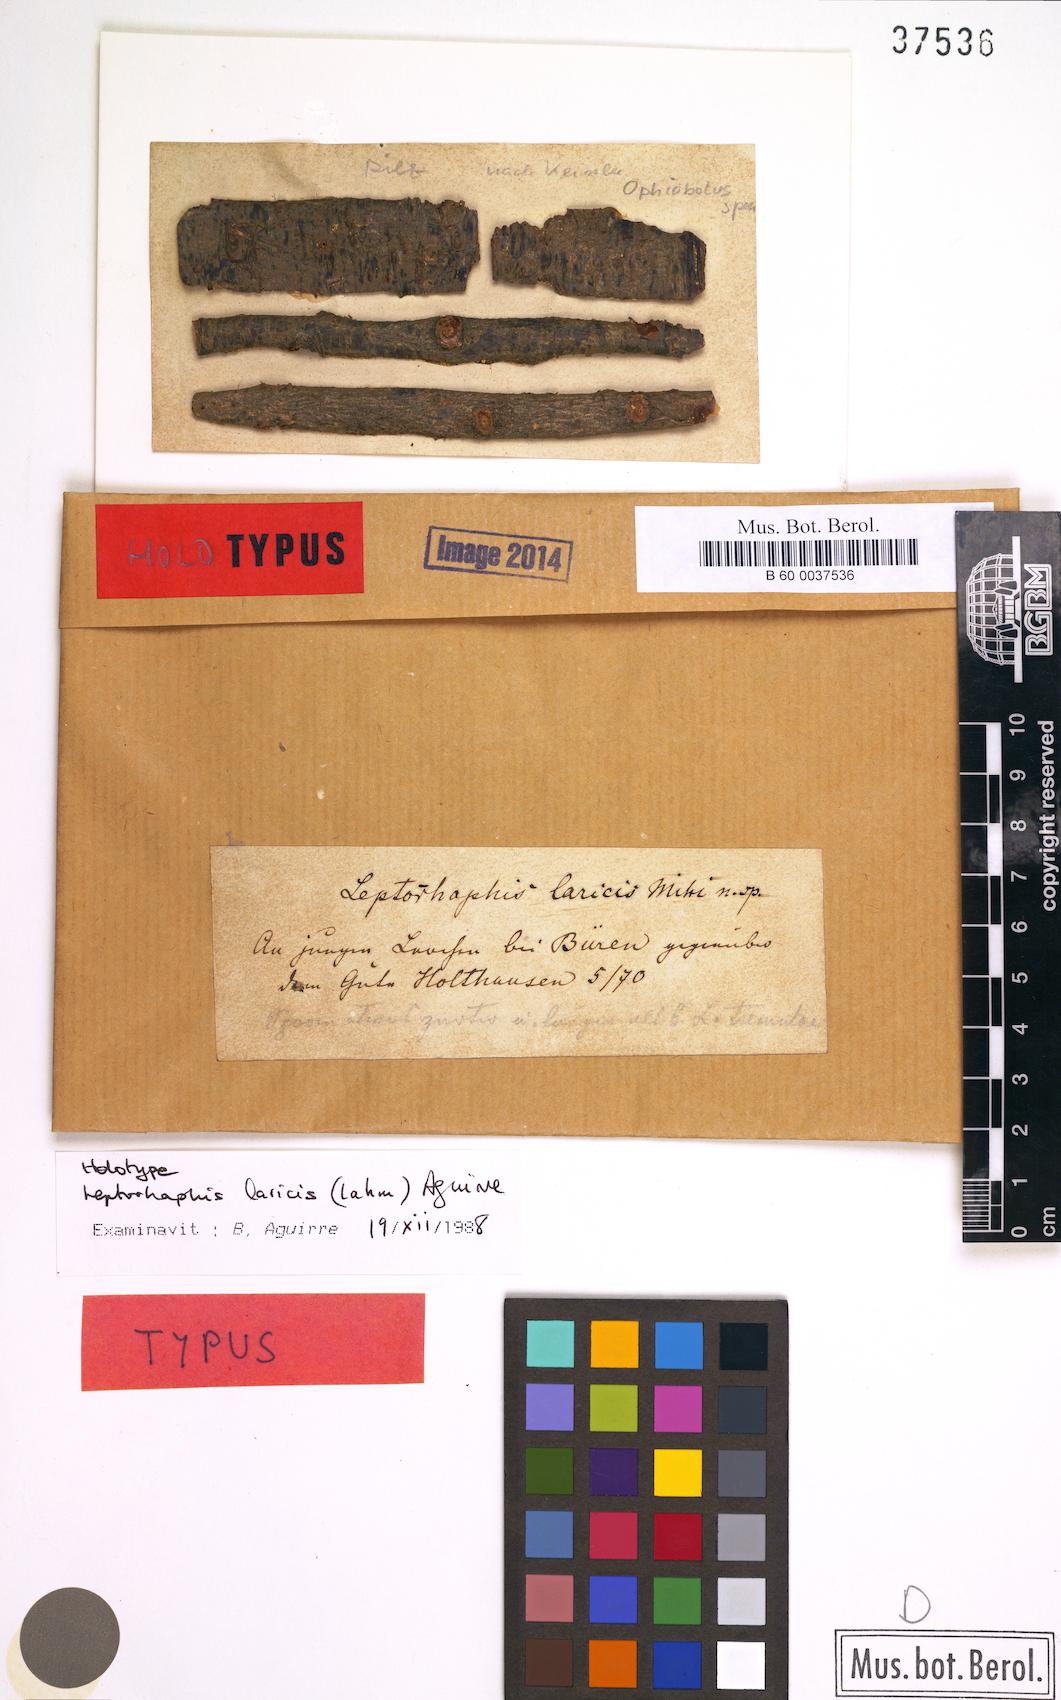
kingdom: Fungi
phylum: Ascomycota
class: Dothideomycetes
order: Pleosporales
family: Naetrocymbaceae
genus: Leptorhaphis
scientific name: Leptorhaphis laricis
